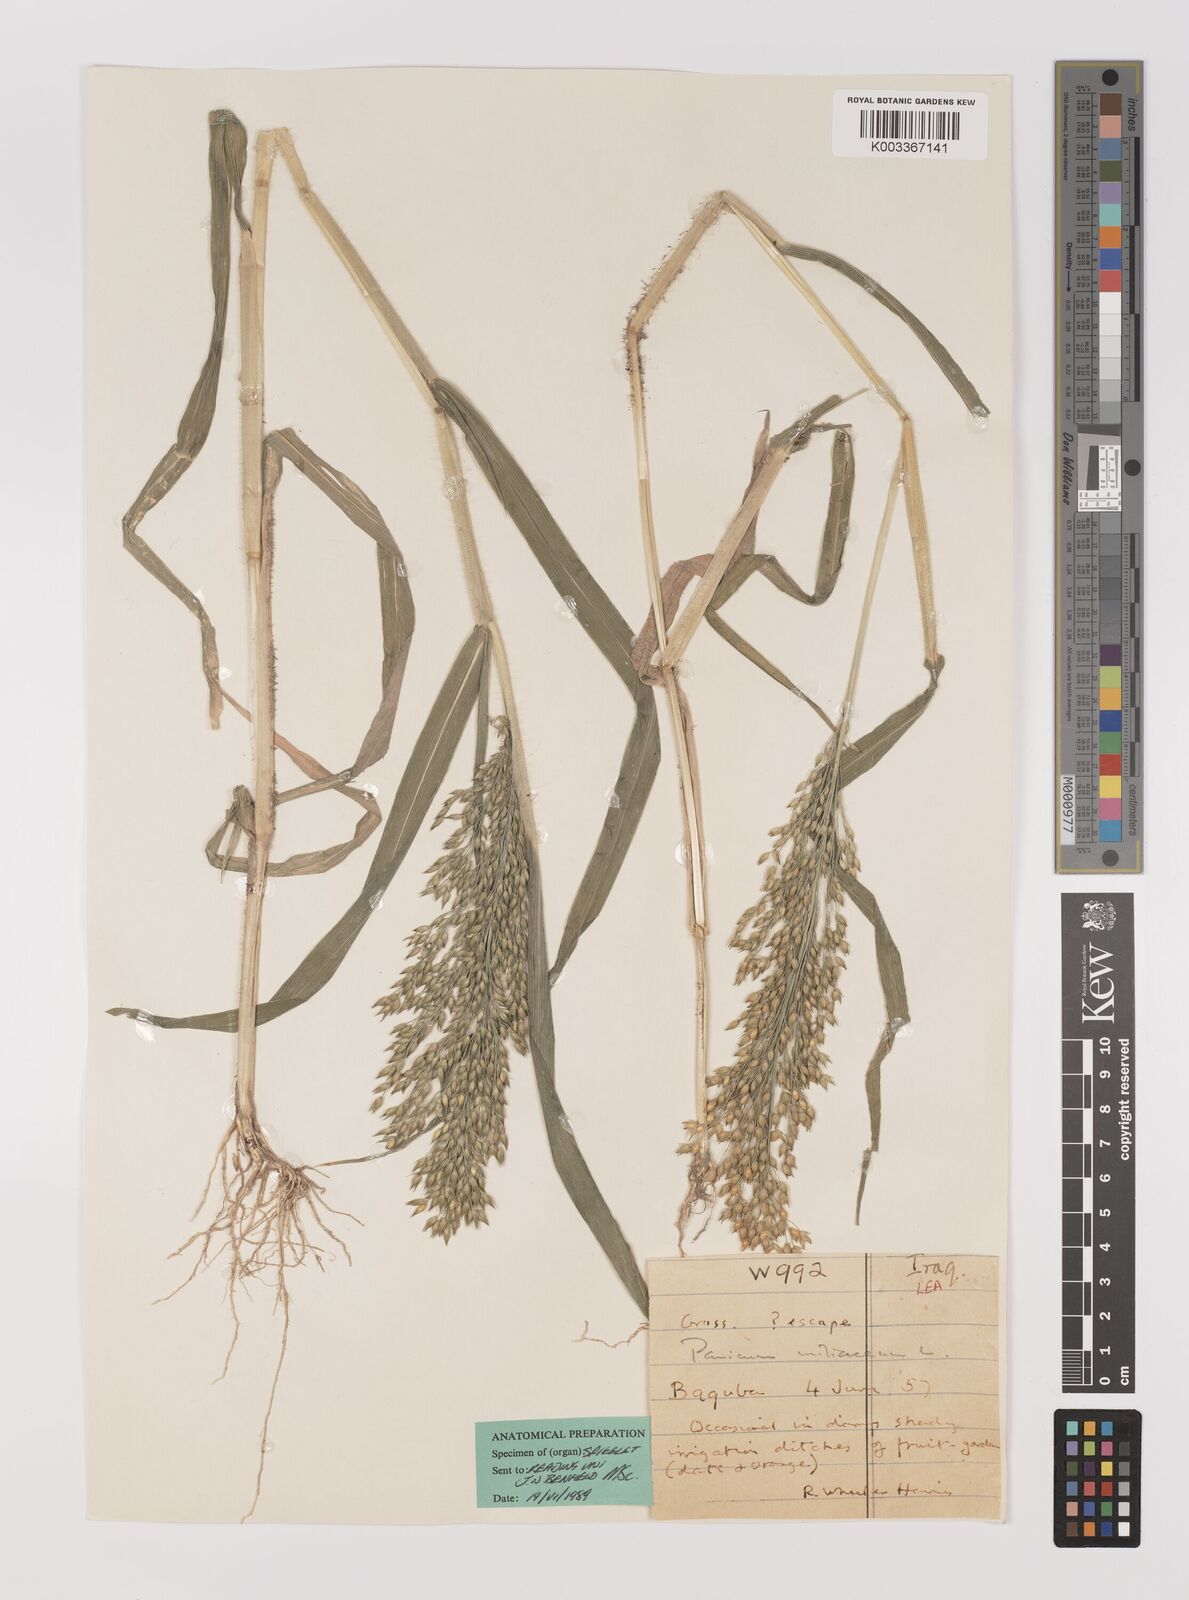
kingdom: Plantae
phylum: Tracheophyta
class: Liliopsida
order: Poales
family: Poaceae
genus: Panicum
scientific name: Panicum miliaceum
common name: Common millet
